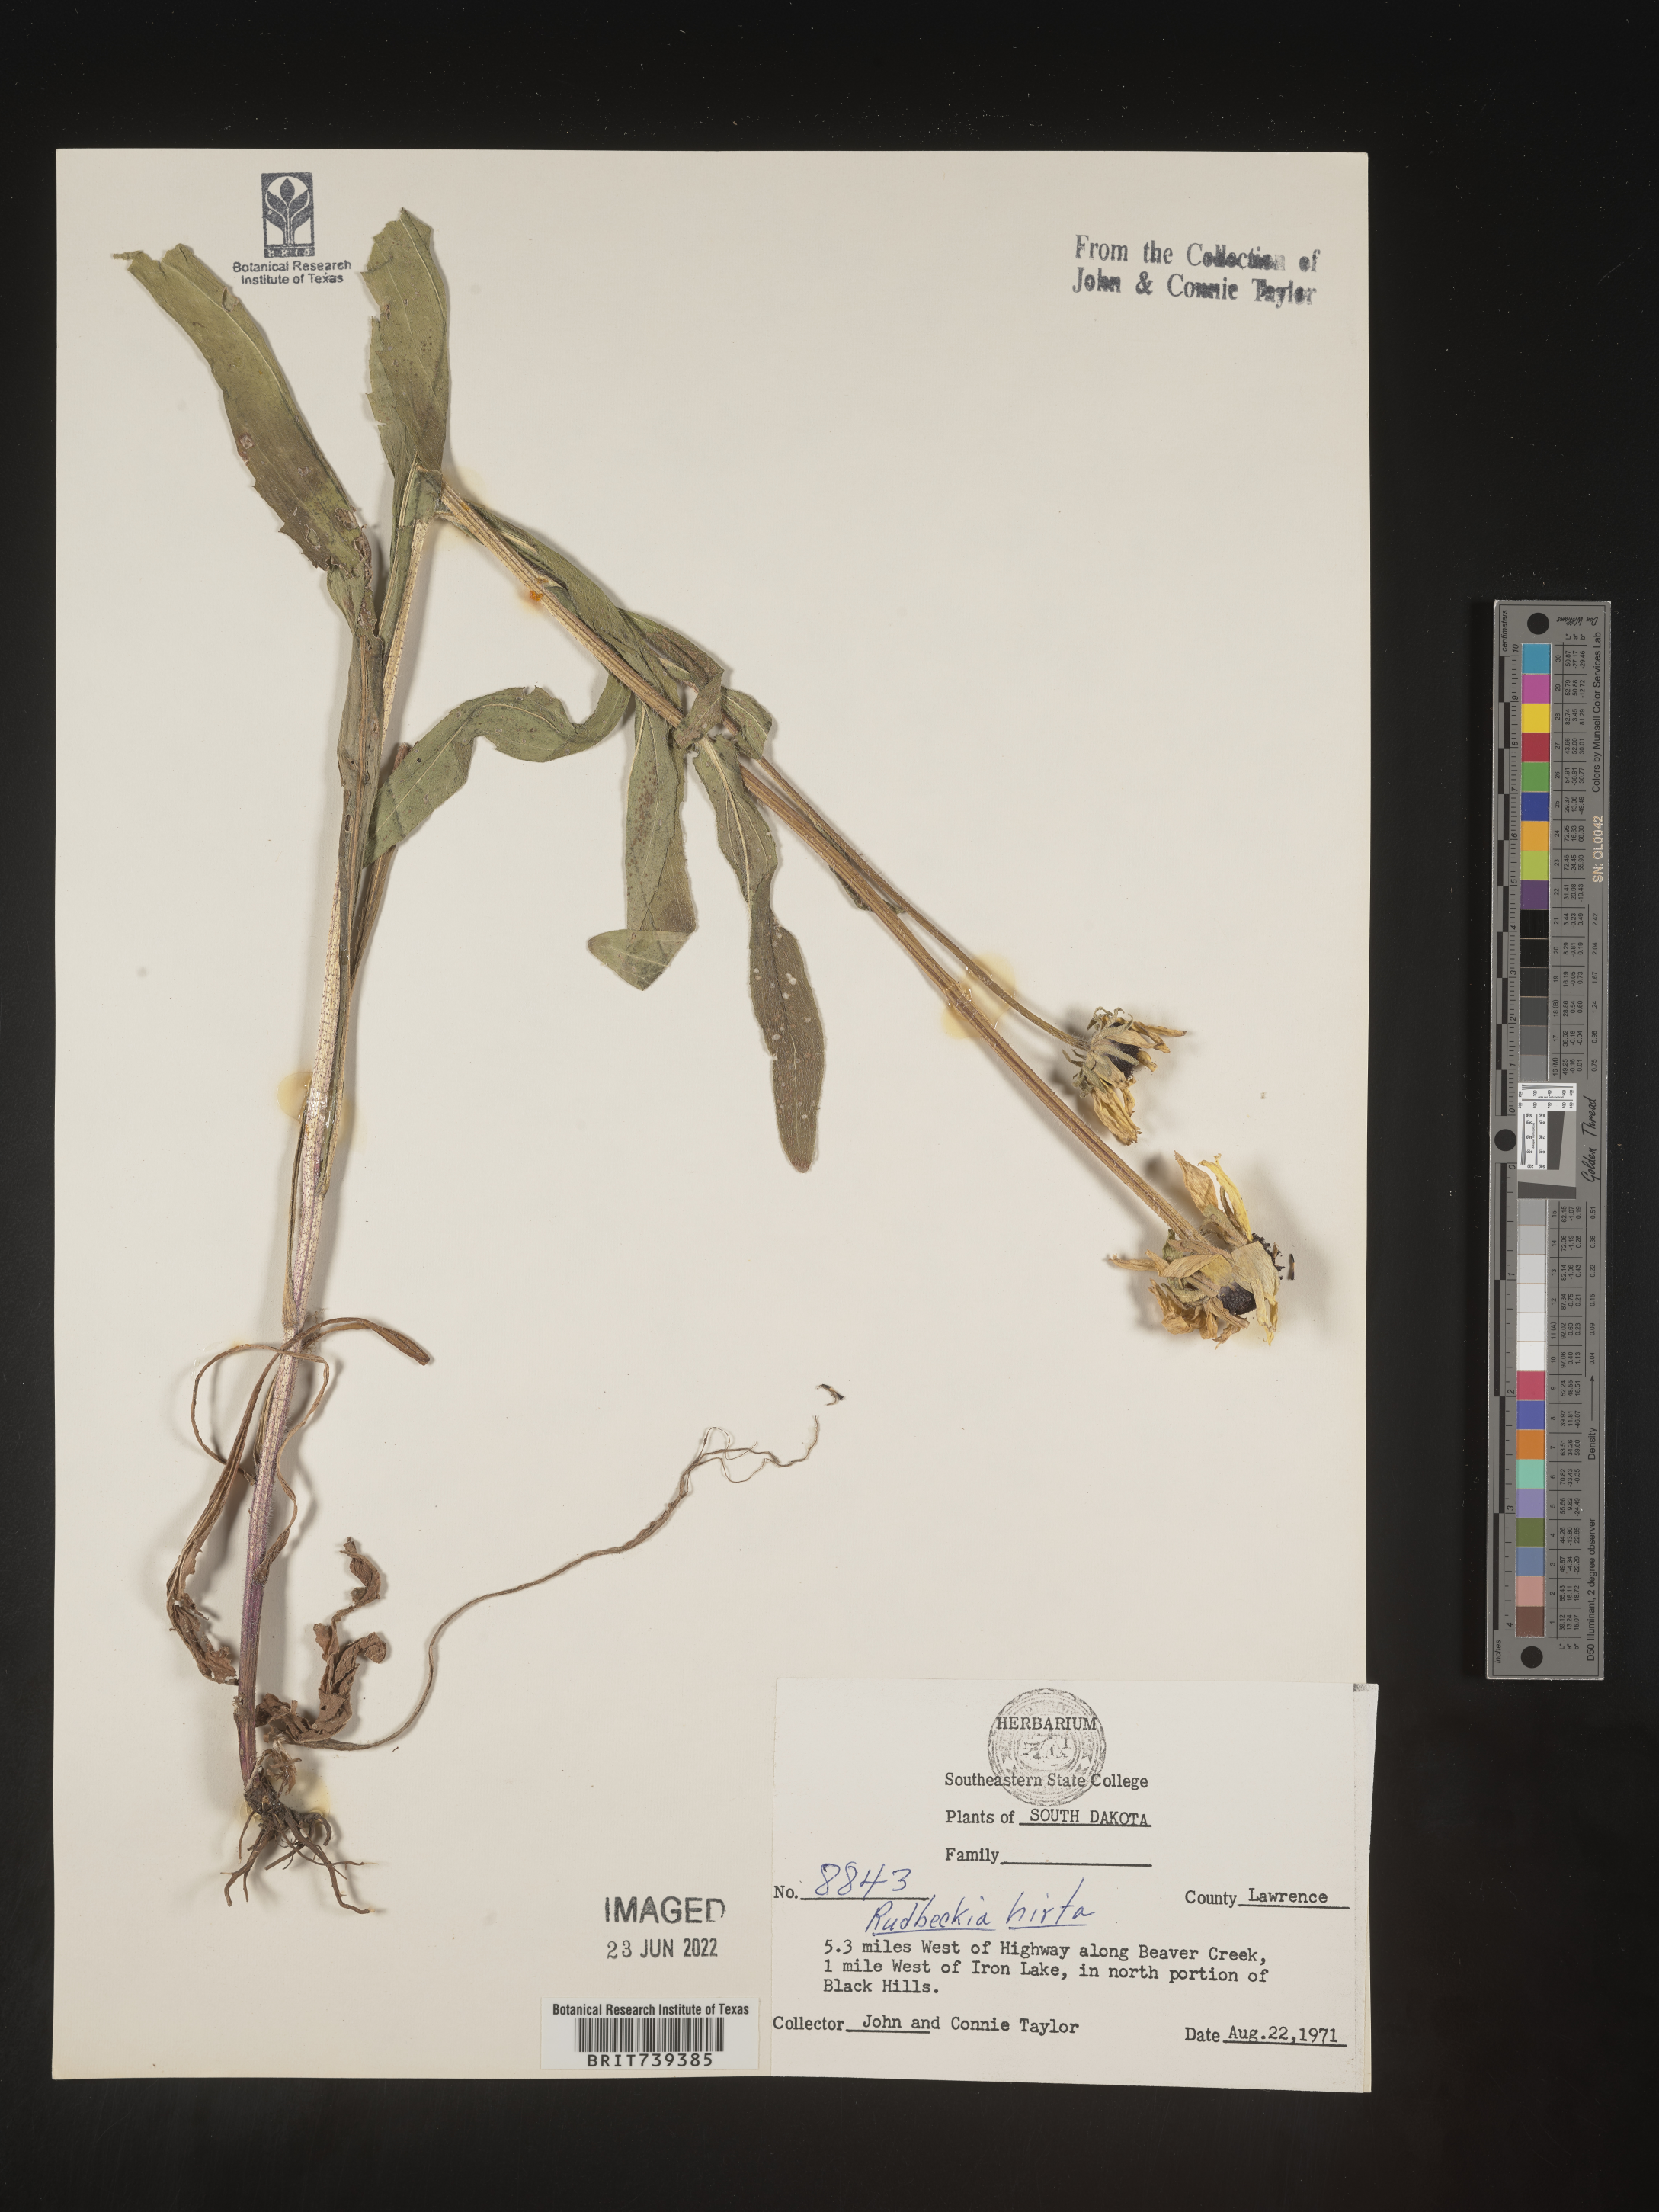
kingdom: Plantae
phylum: Tracheophyta
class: Magnoliopsida
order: Asterales
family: Asteraceae
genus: Rudbeckia
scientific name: Rudbeckia hirta
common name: Black-eyed-susan
